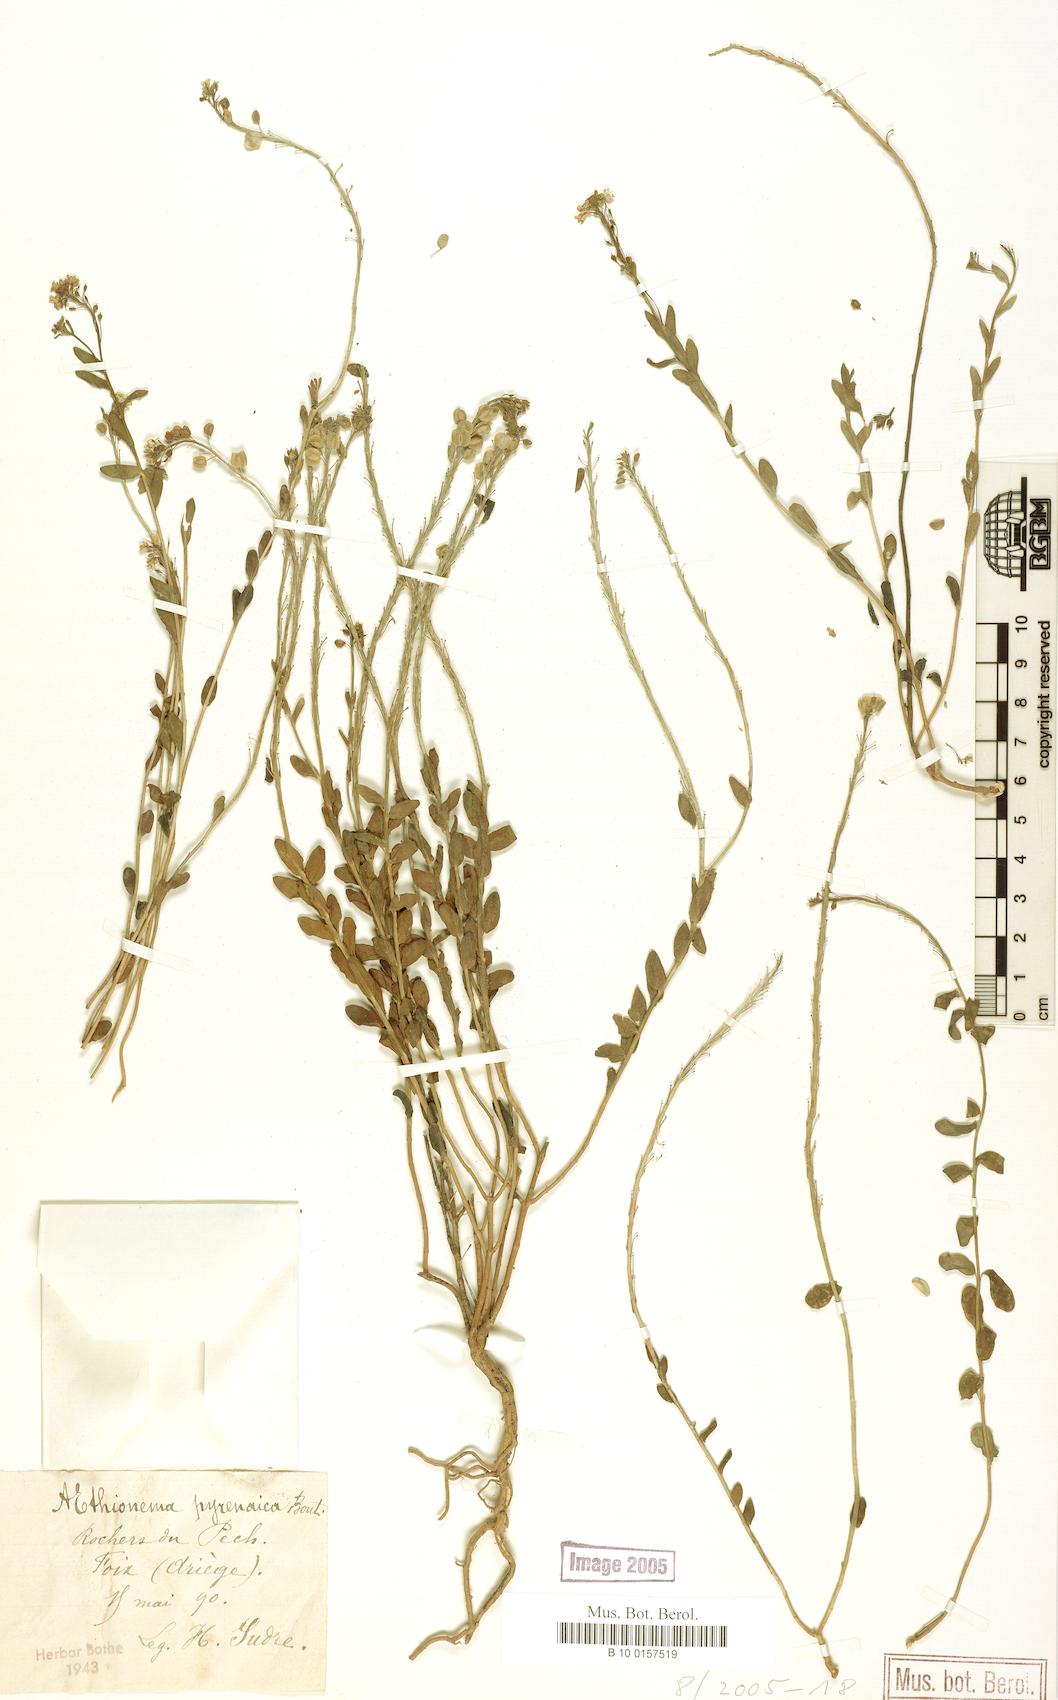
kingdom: Plantae
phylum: Tracheophyta
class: Magnoliopsida
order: Brassicales
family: Brassicaceae
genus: Aethionema
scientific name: Aethionema saxatile
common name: Burnt candytuft
